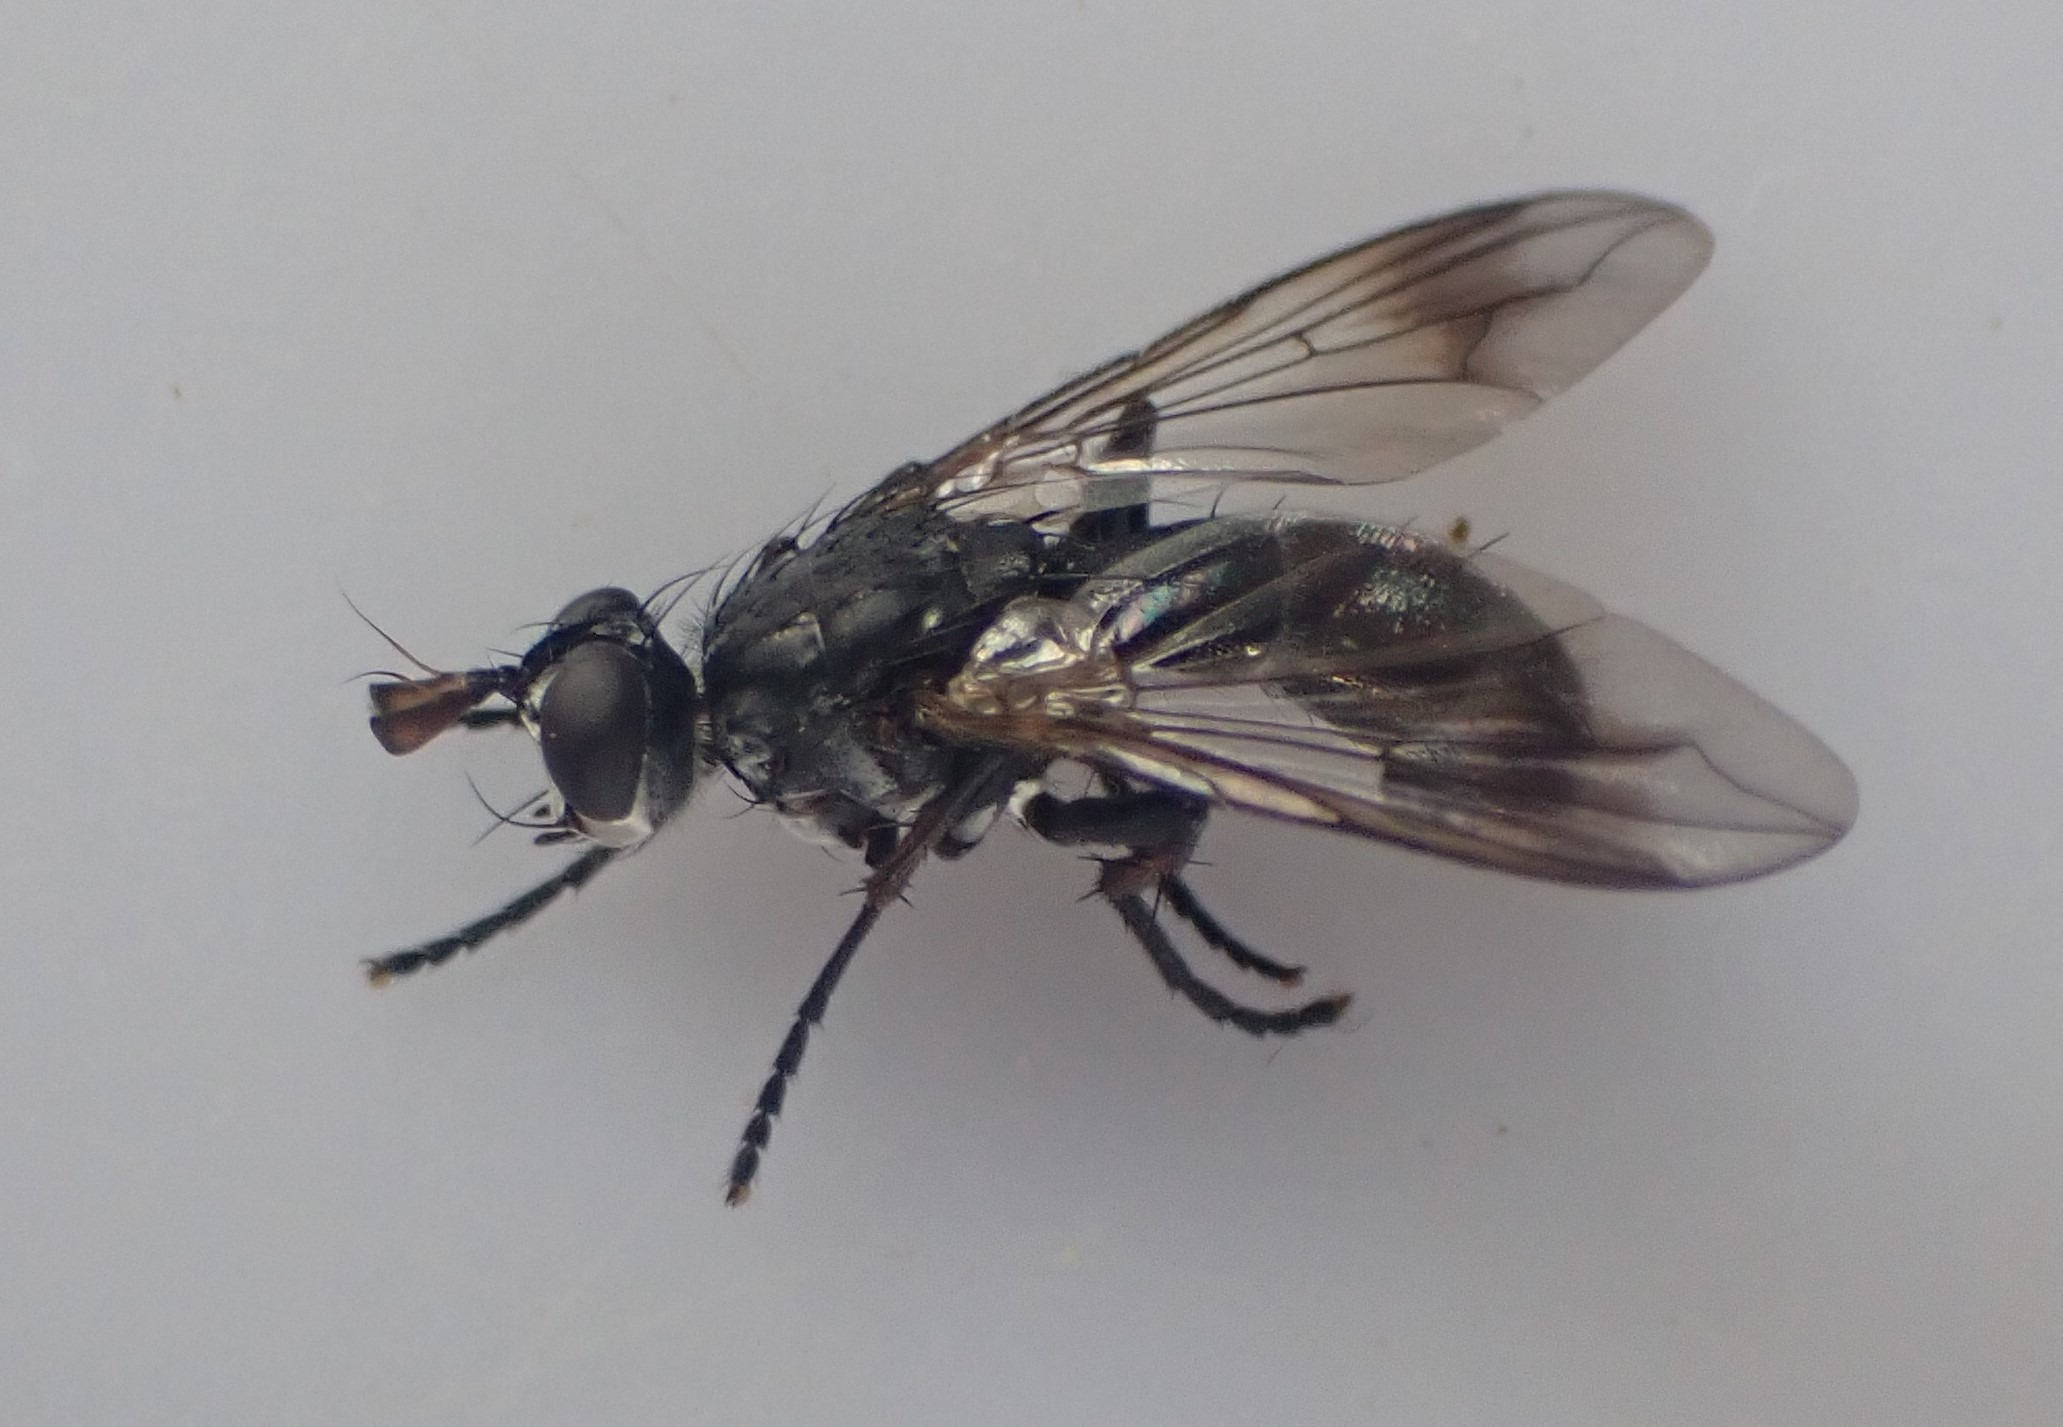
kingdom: Animalia
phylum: Arthropoda
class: Insecta
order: Diptera
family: Tachinidae
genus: Lophosia
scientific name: Lophosia fasciata
